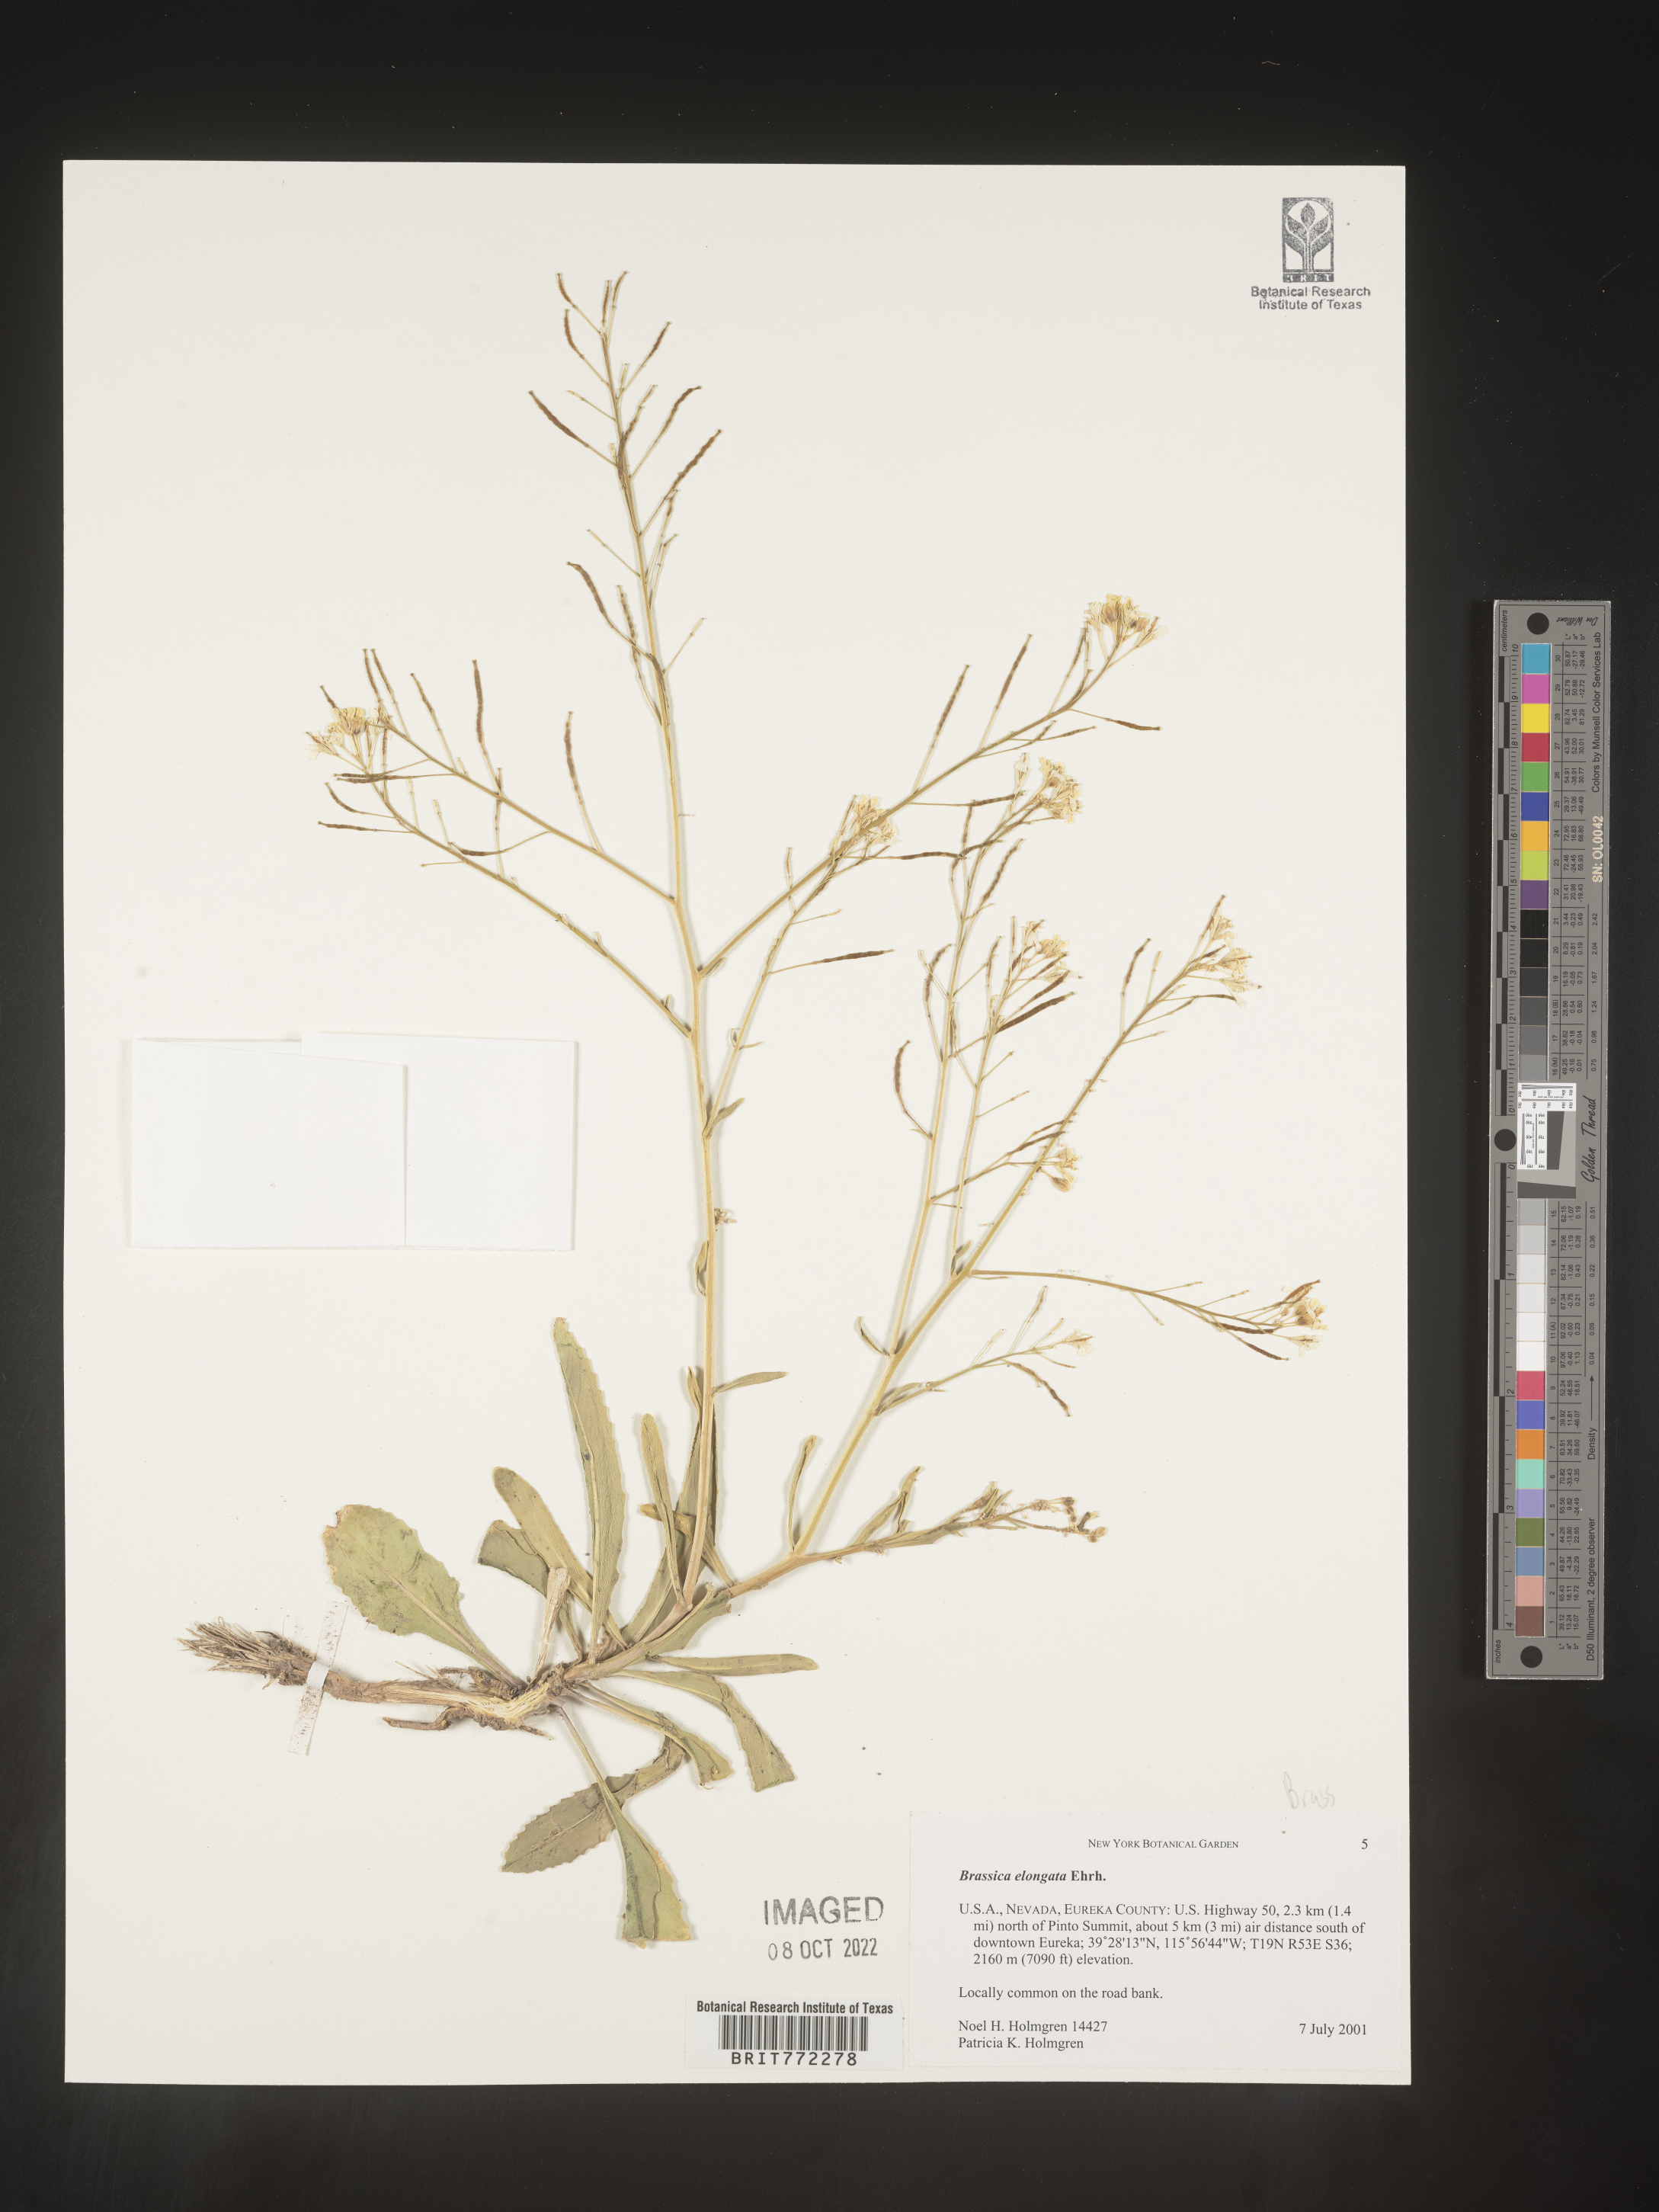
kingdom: Plantae
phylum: Tracheophyta
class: Magnoliopsida
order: Brassicales
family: Brassicaceae
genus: Brassica
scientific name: Brassica
